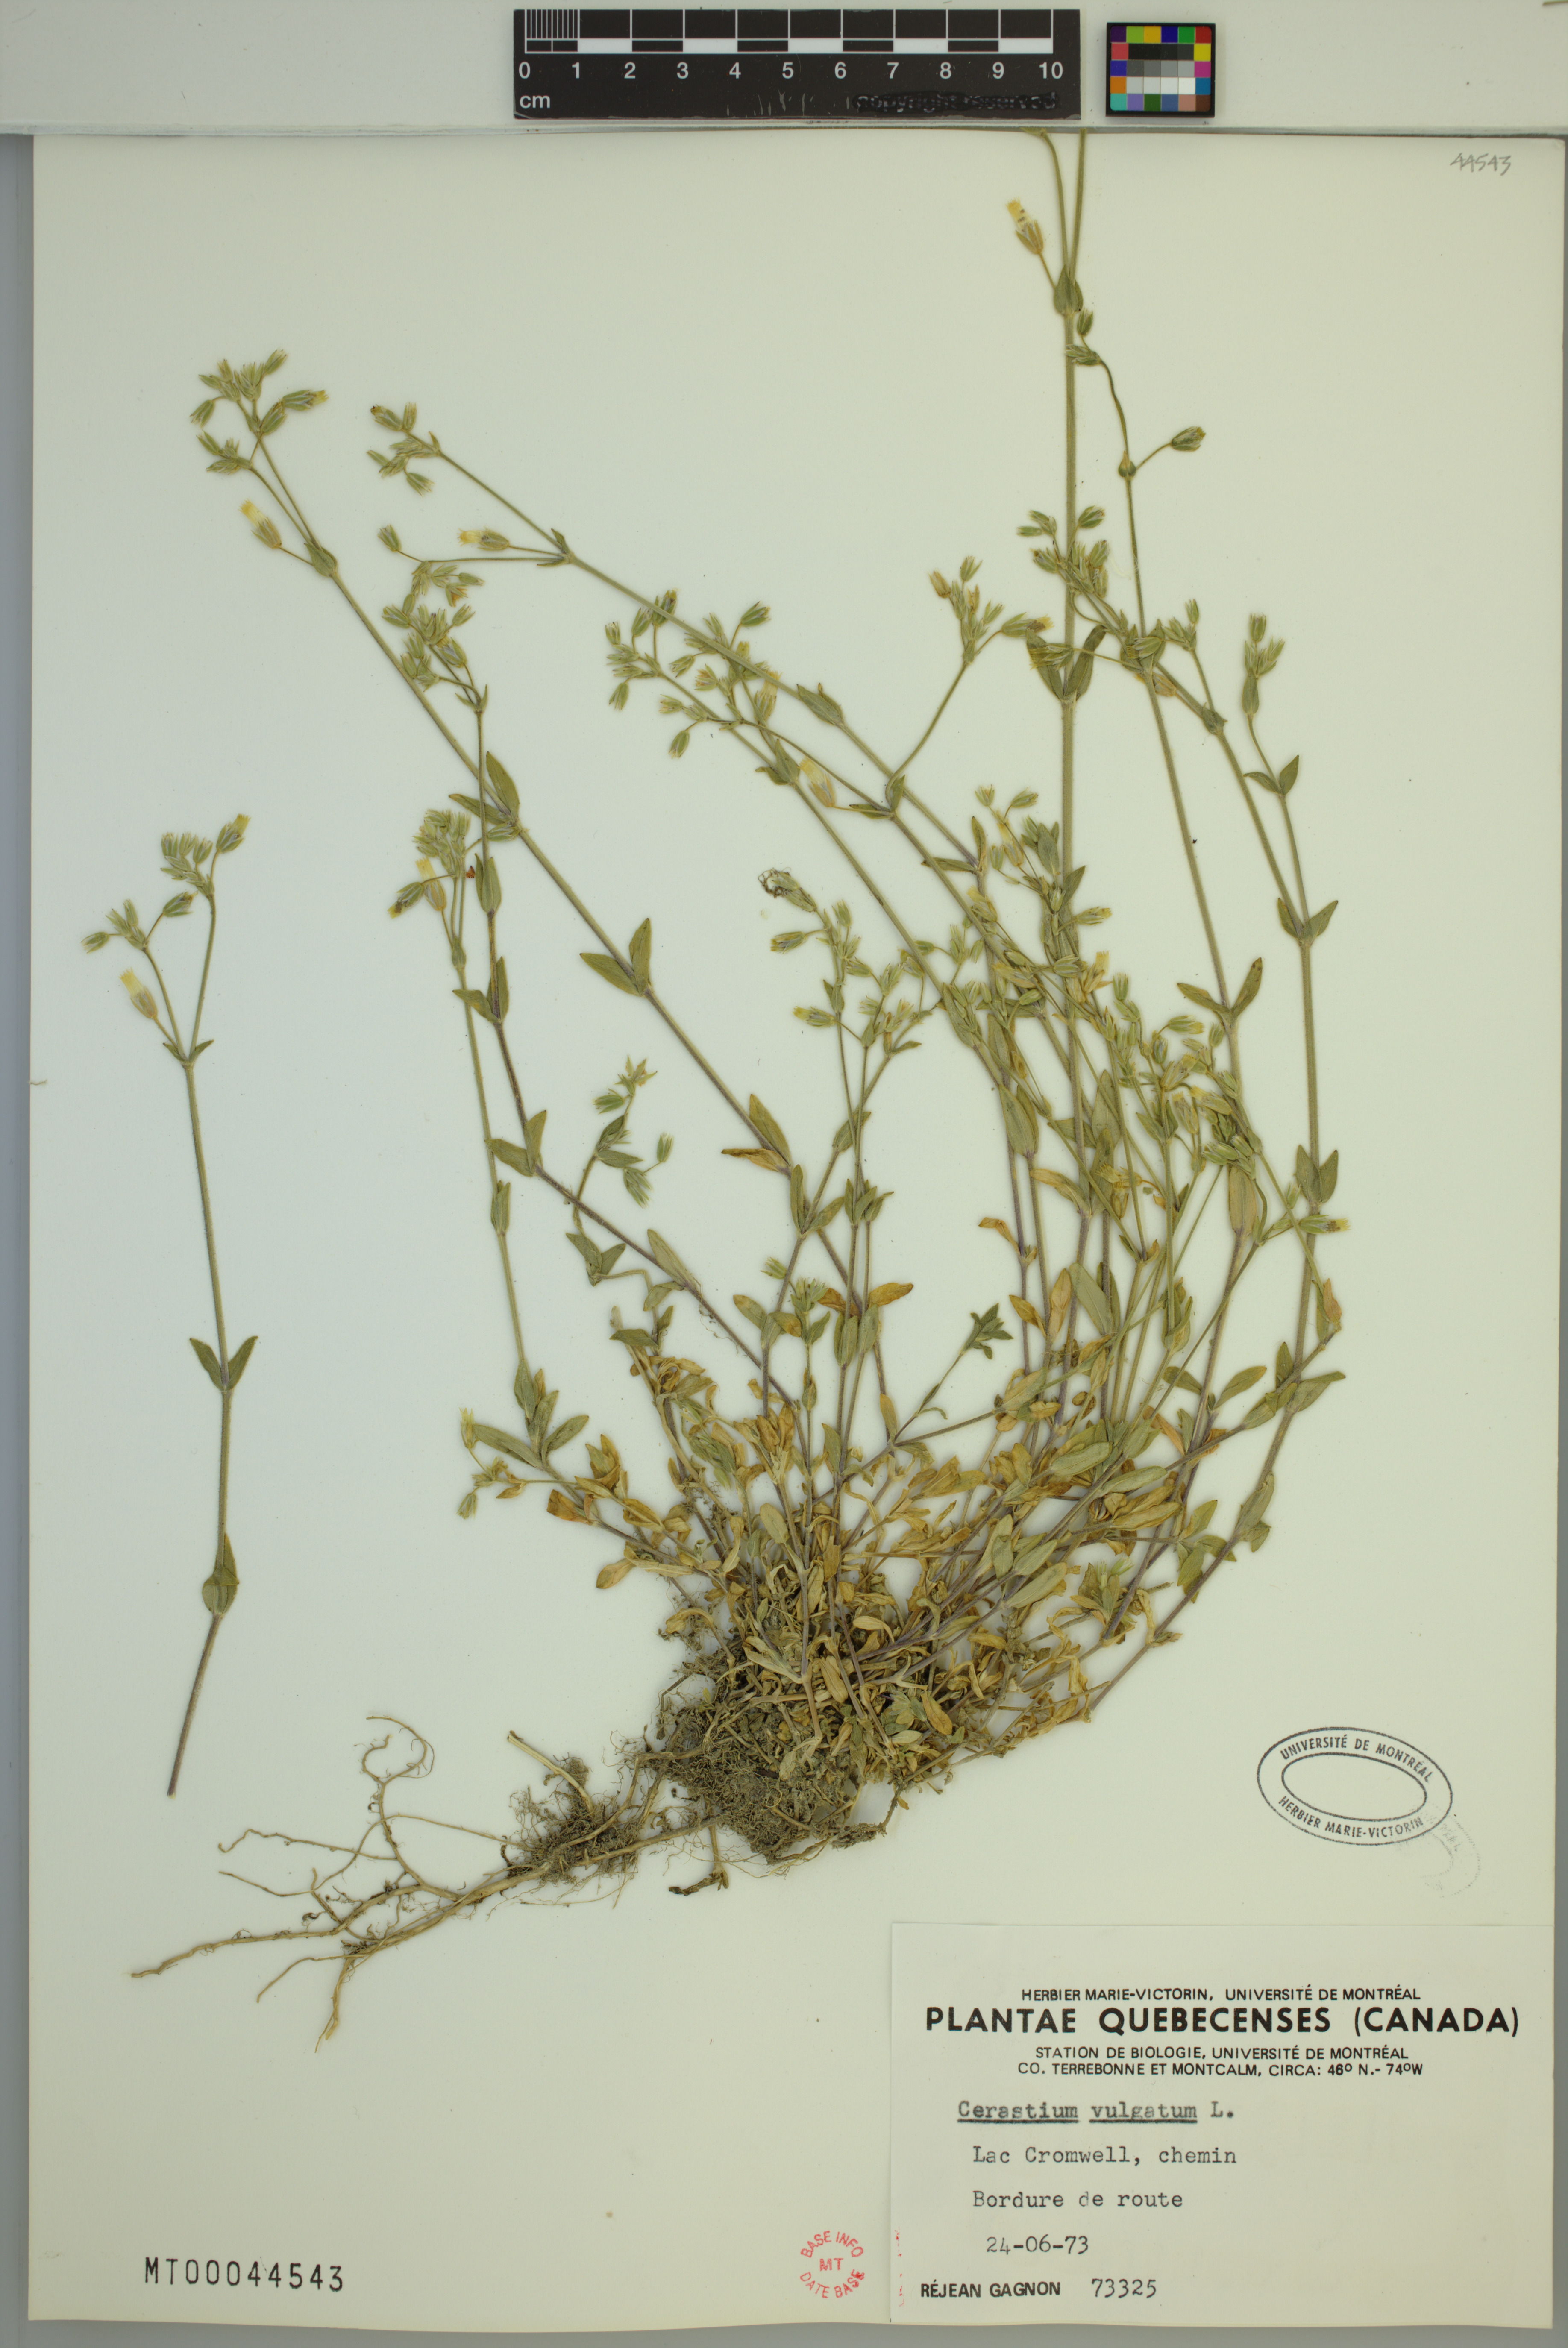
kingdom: Plantae
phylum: Tracheophyta
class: Magnoliopsida
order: Caryophyllales
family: Caryophyllaceae
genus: Cerastium
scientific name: Cerastium holosteoides
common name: Big chickweed
